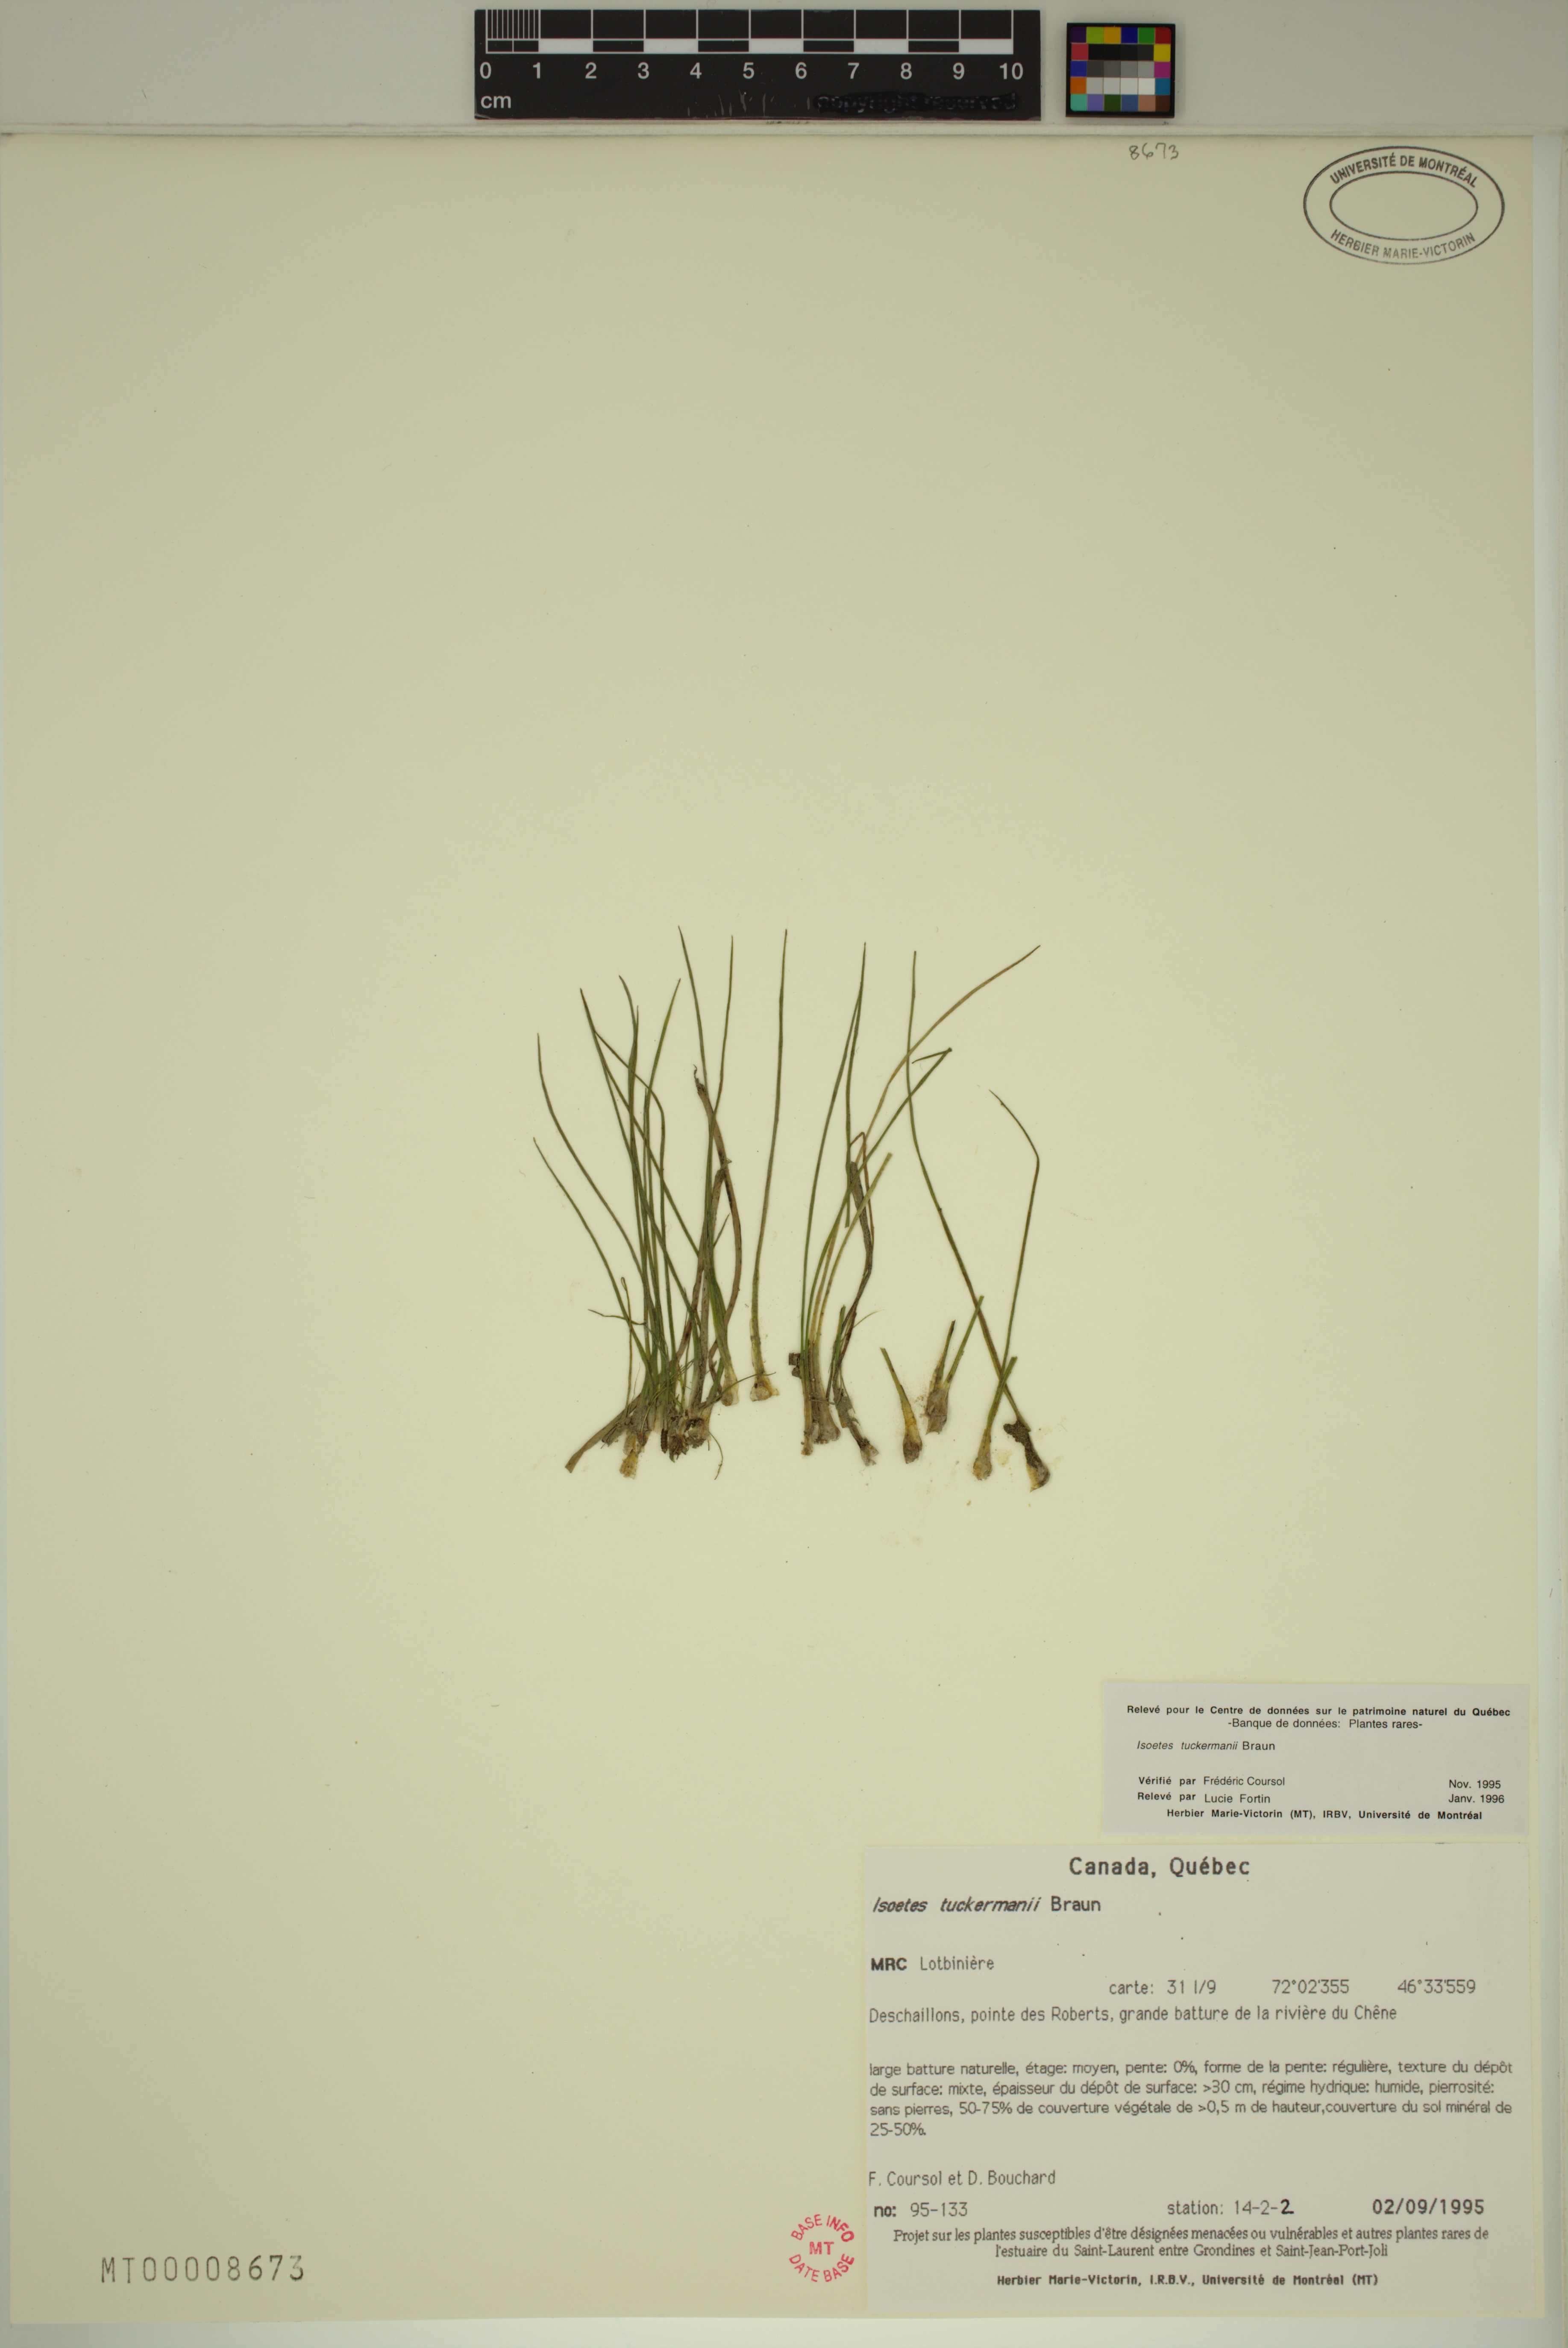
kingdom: Plantae
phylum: Tracheophyta
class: Lycopodiopsida
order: Isoetales
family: Isoetaceae
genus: Isoetes
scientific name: Isoetes laurentiana
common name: St. lawrence quillwort
